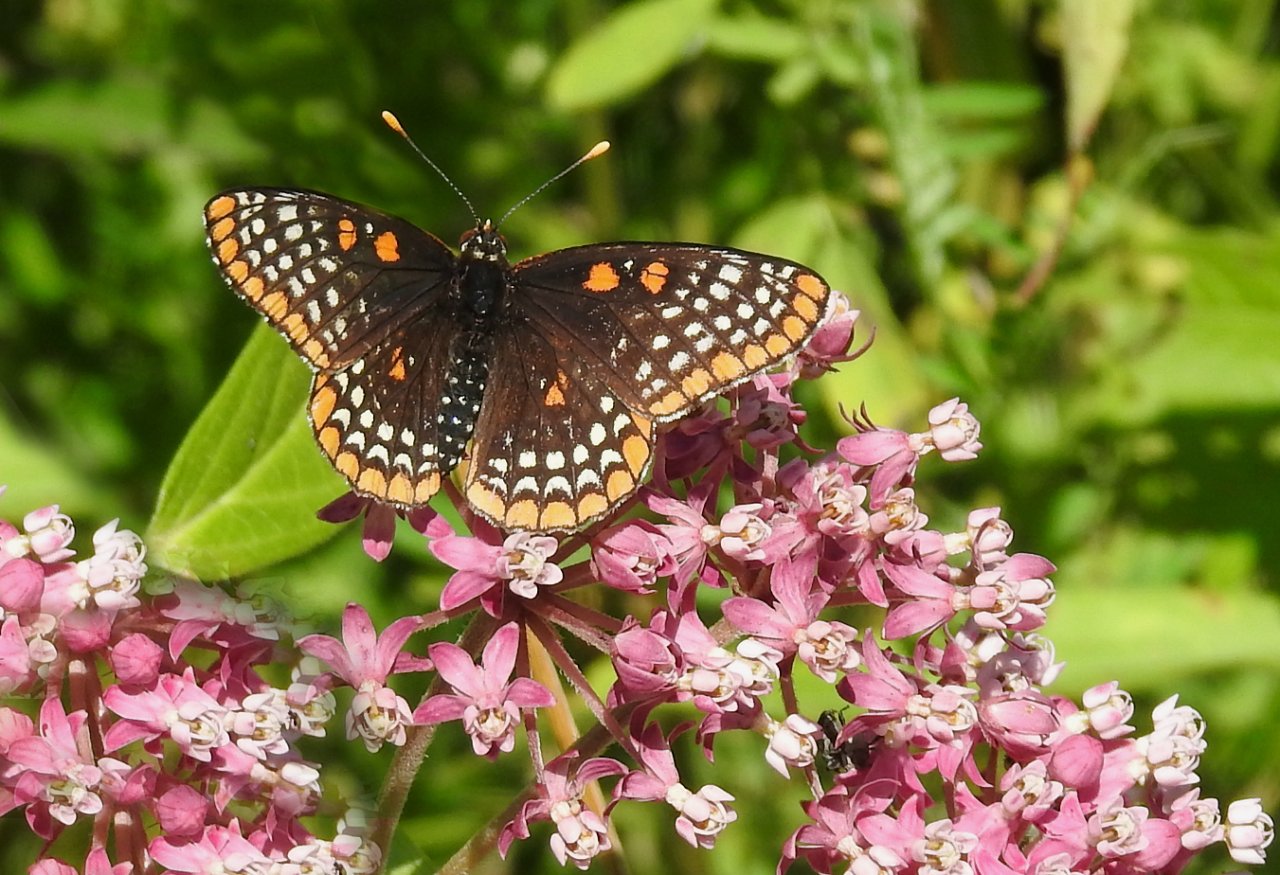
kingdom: Animalia
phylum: Arthropoda
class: Insecta
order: Lepidoptera
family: Nymphalidae
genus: Euphydryas
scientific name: Euphydryas phaeton
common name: Baltimore Checkerspot
